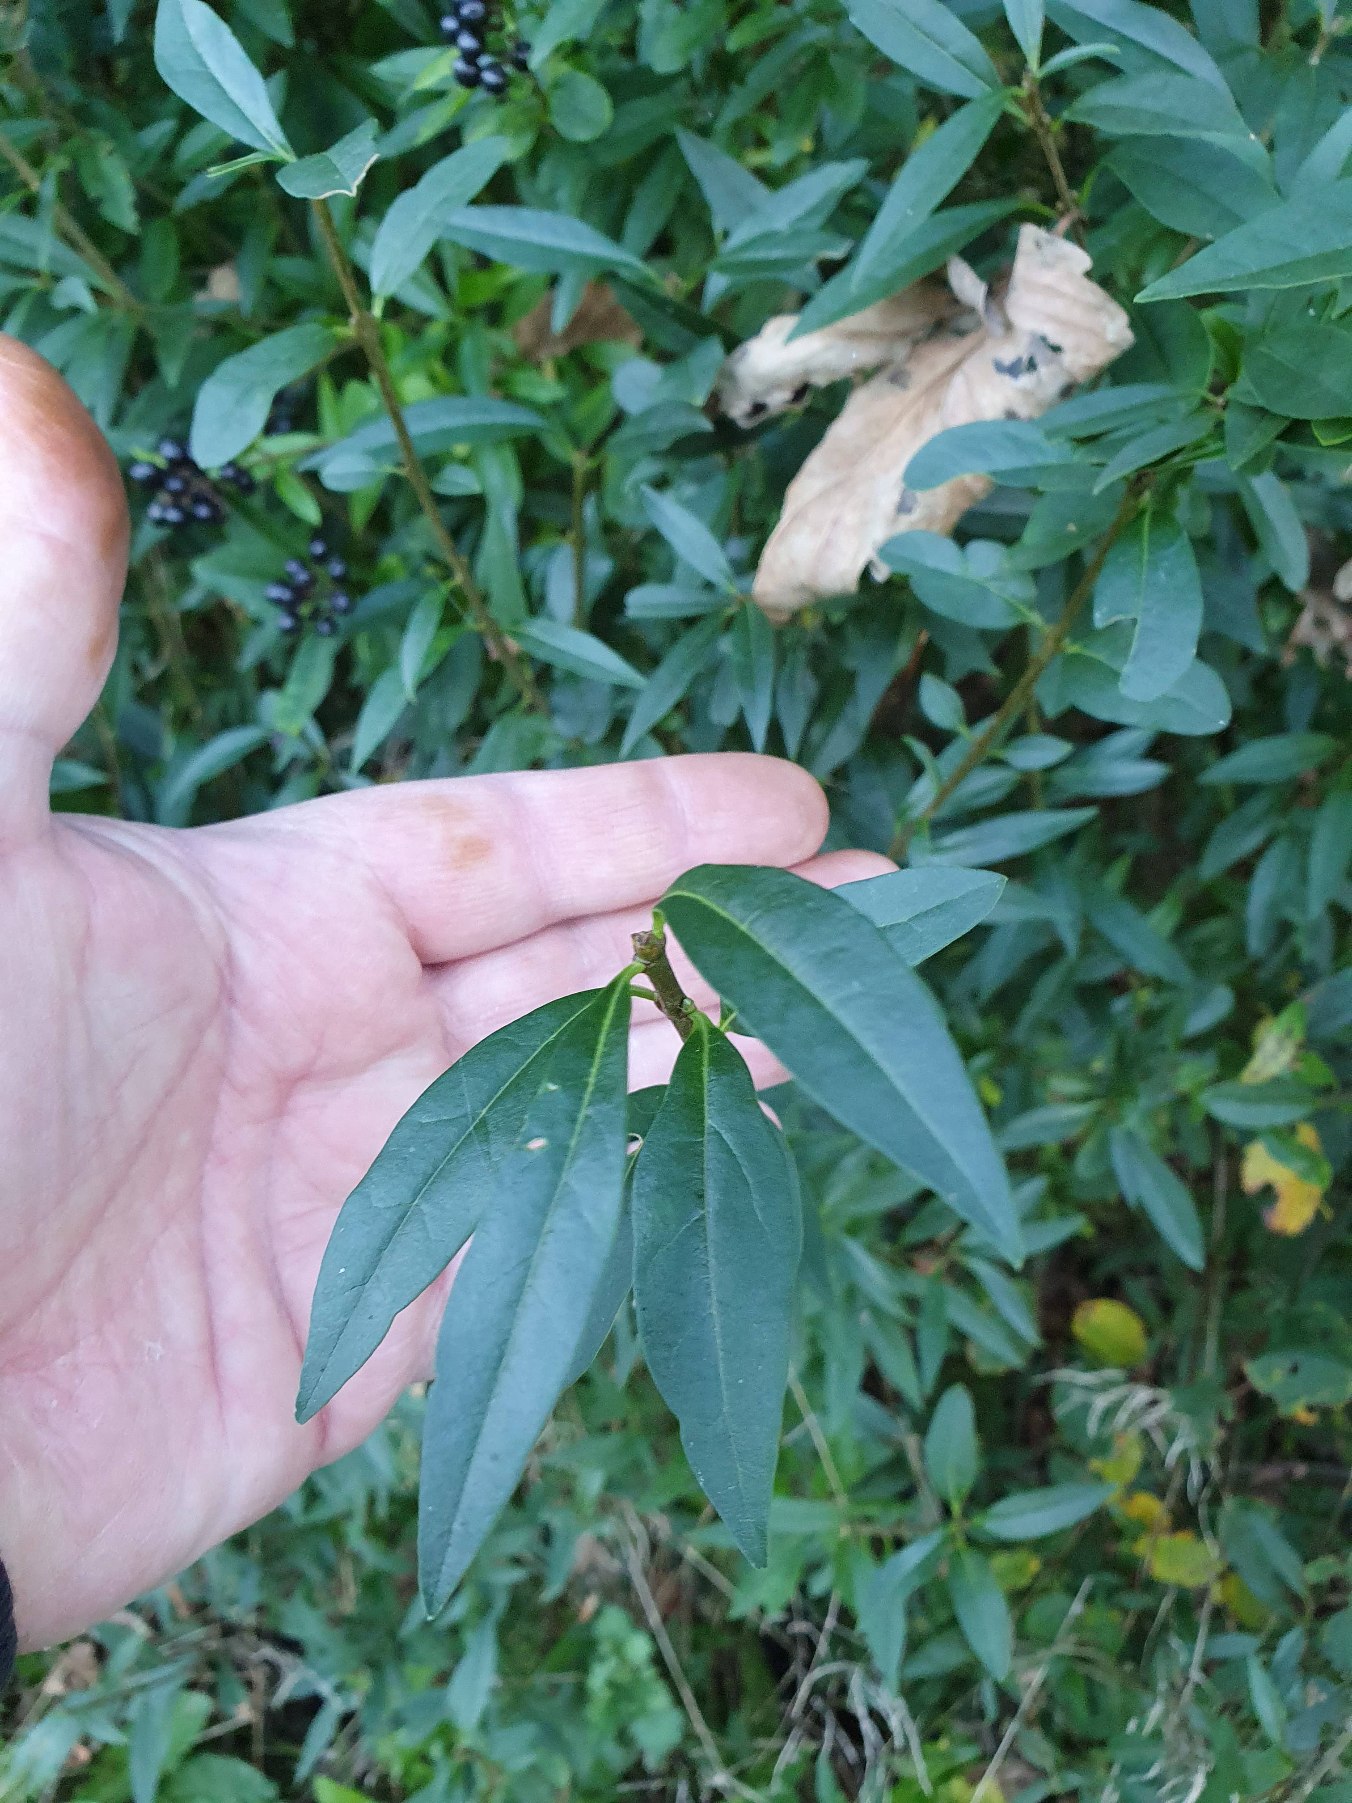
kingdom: Plantae
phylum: Tracheophyta
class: Magnoliopsida
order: Lamiales
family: Oleaceae
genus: Ligustrum
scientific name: Ligustrum vulgare
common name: Liguster
